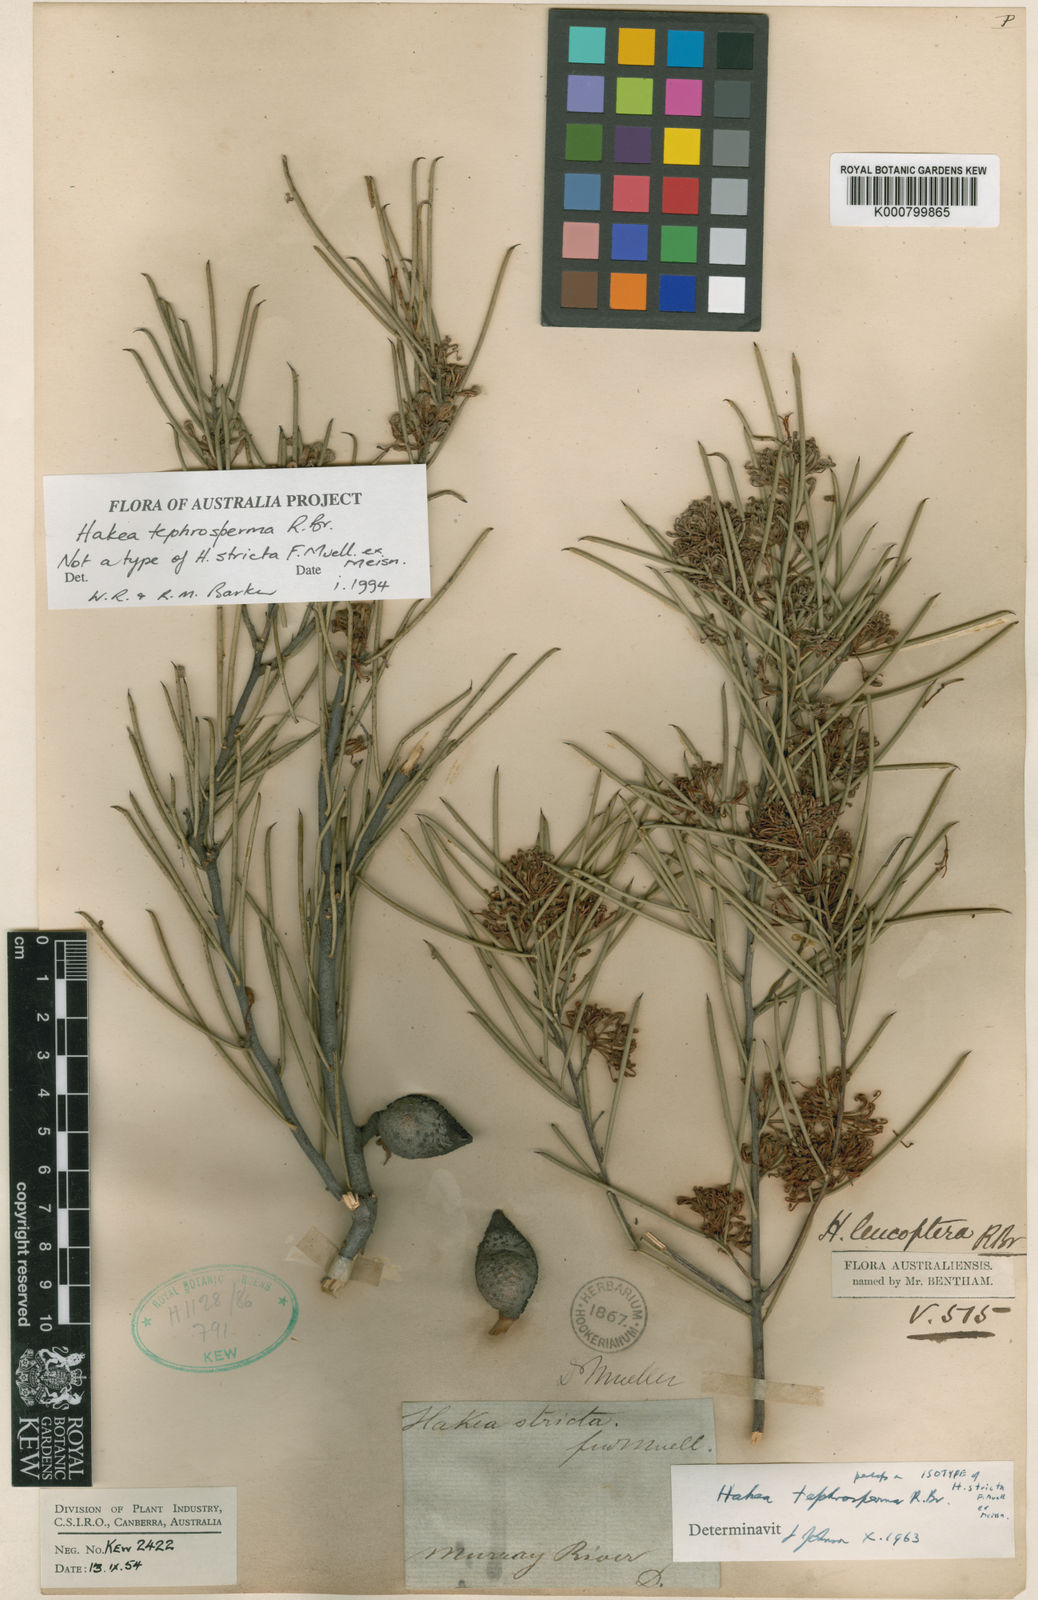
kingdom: Plantae
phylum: Tracheophyta
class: Magnoliopsida
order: Proteales
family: Proteaceae
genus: Hakea
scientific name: Hakea tephrosperma
